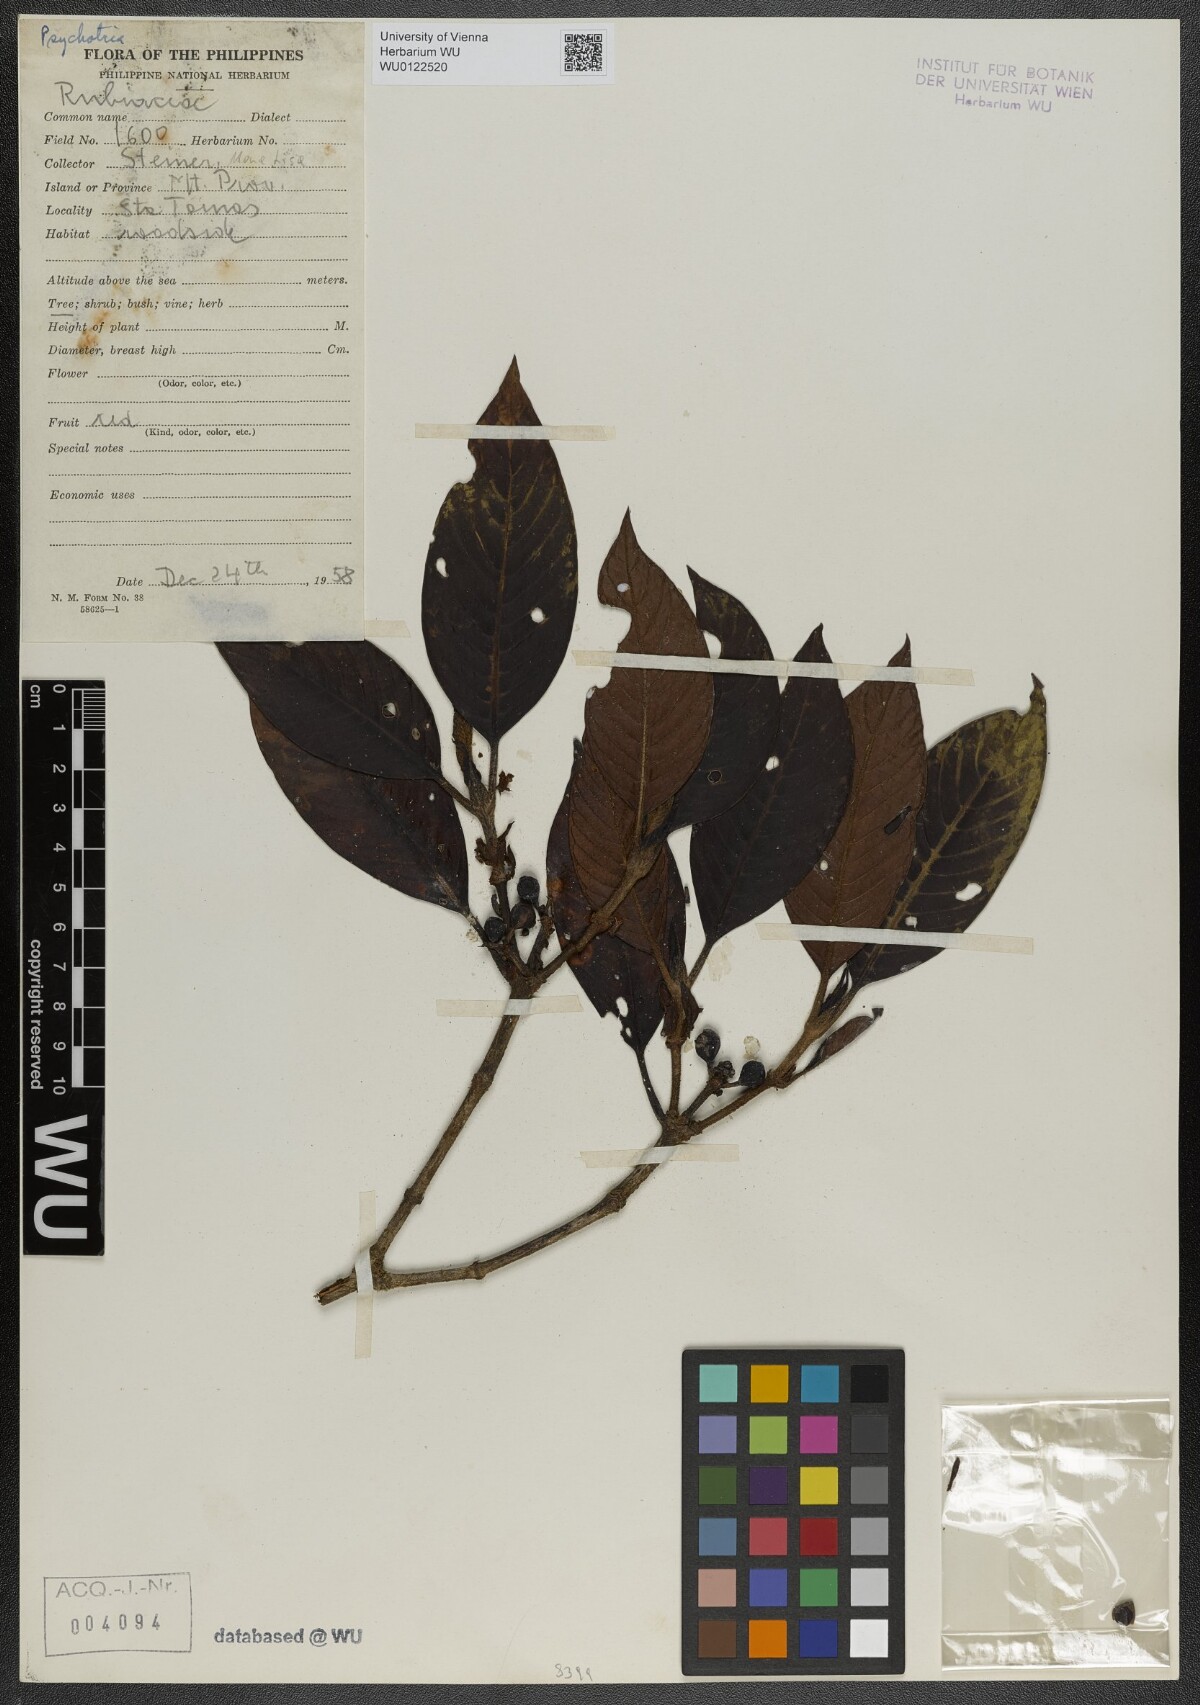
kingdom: Plantae
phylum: Tracheophyta
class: Magnoliopsida
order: Gentianales
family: Rubiaceae
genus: Psychotria
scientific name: Psychotria
